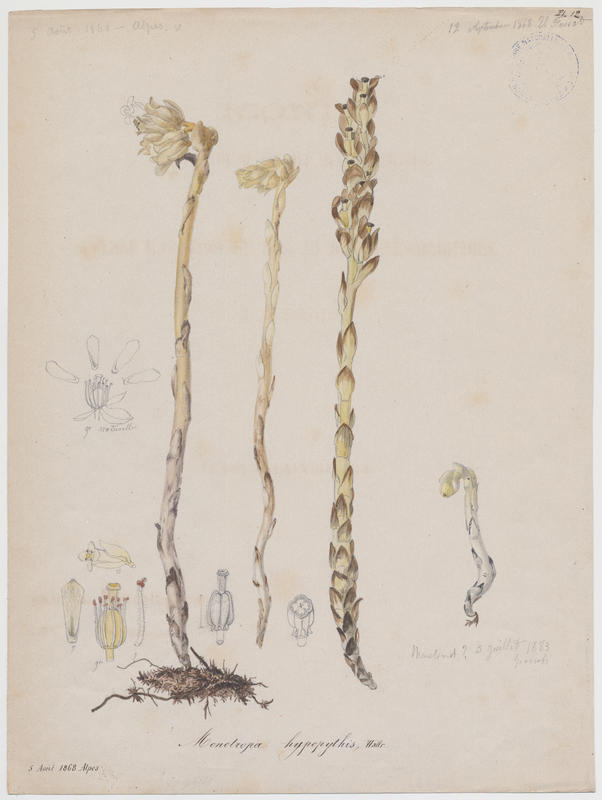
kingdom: Plantae
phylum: Tracheophyta
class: Magnoliopsida
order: Ericales
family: Ericaceae
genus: Hypopitys
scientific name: Hypopitys monotropa
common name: Yellow bird's-nest
